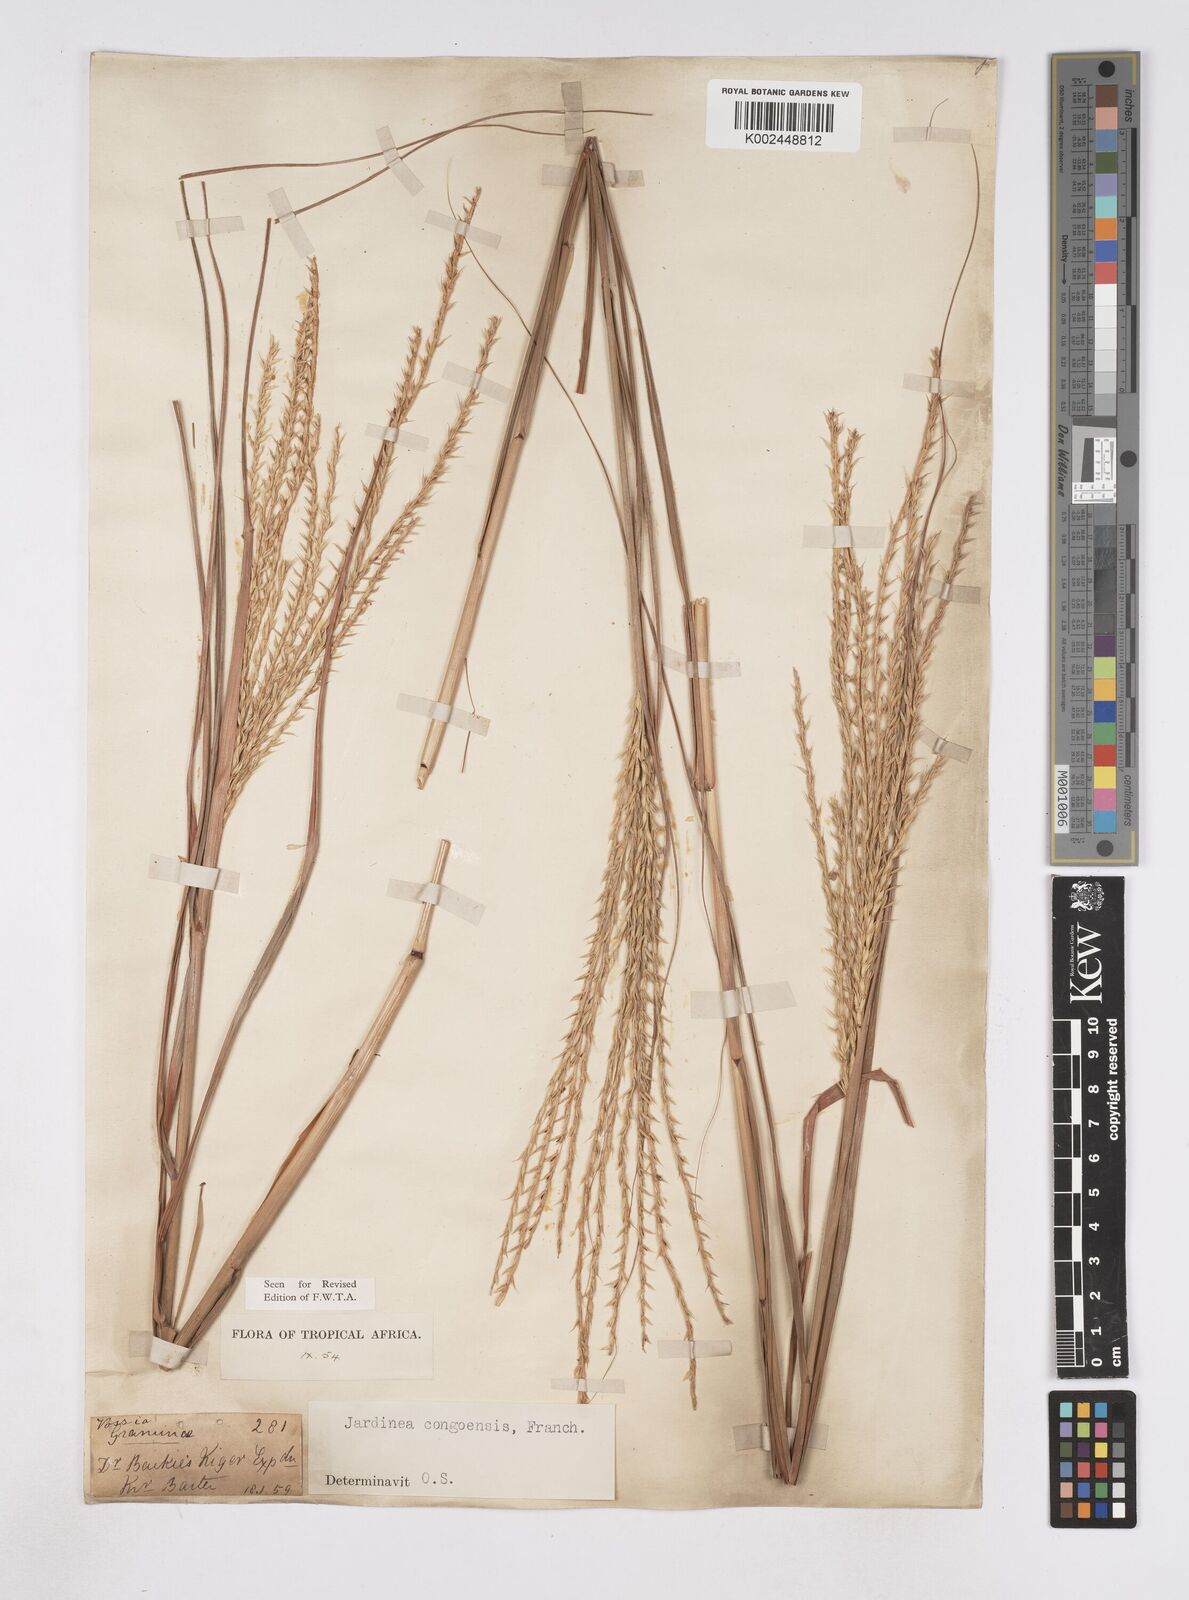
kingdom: Plantae
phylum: Tracheophyta
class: Liliopsida
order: Poales
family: Poaceae
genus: Phacelurus
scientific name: Phacelurus gabonensis
